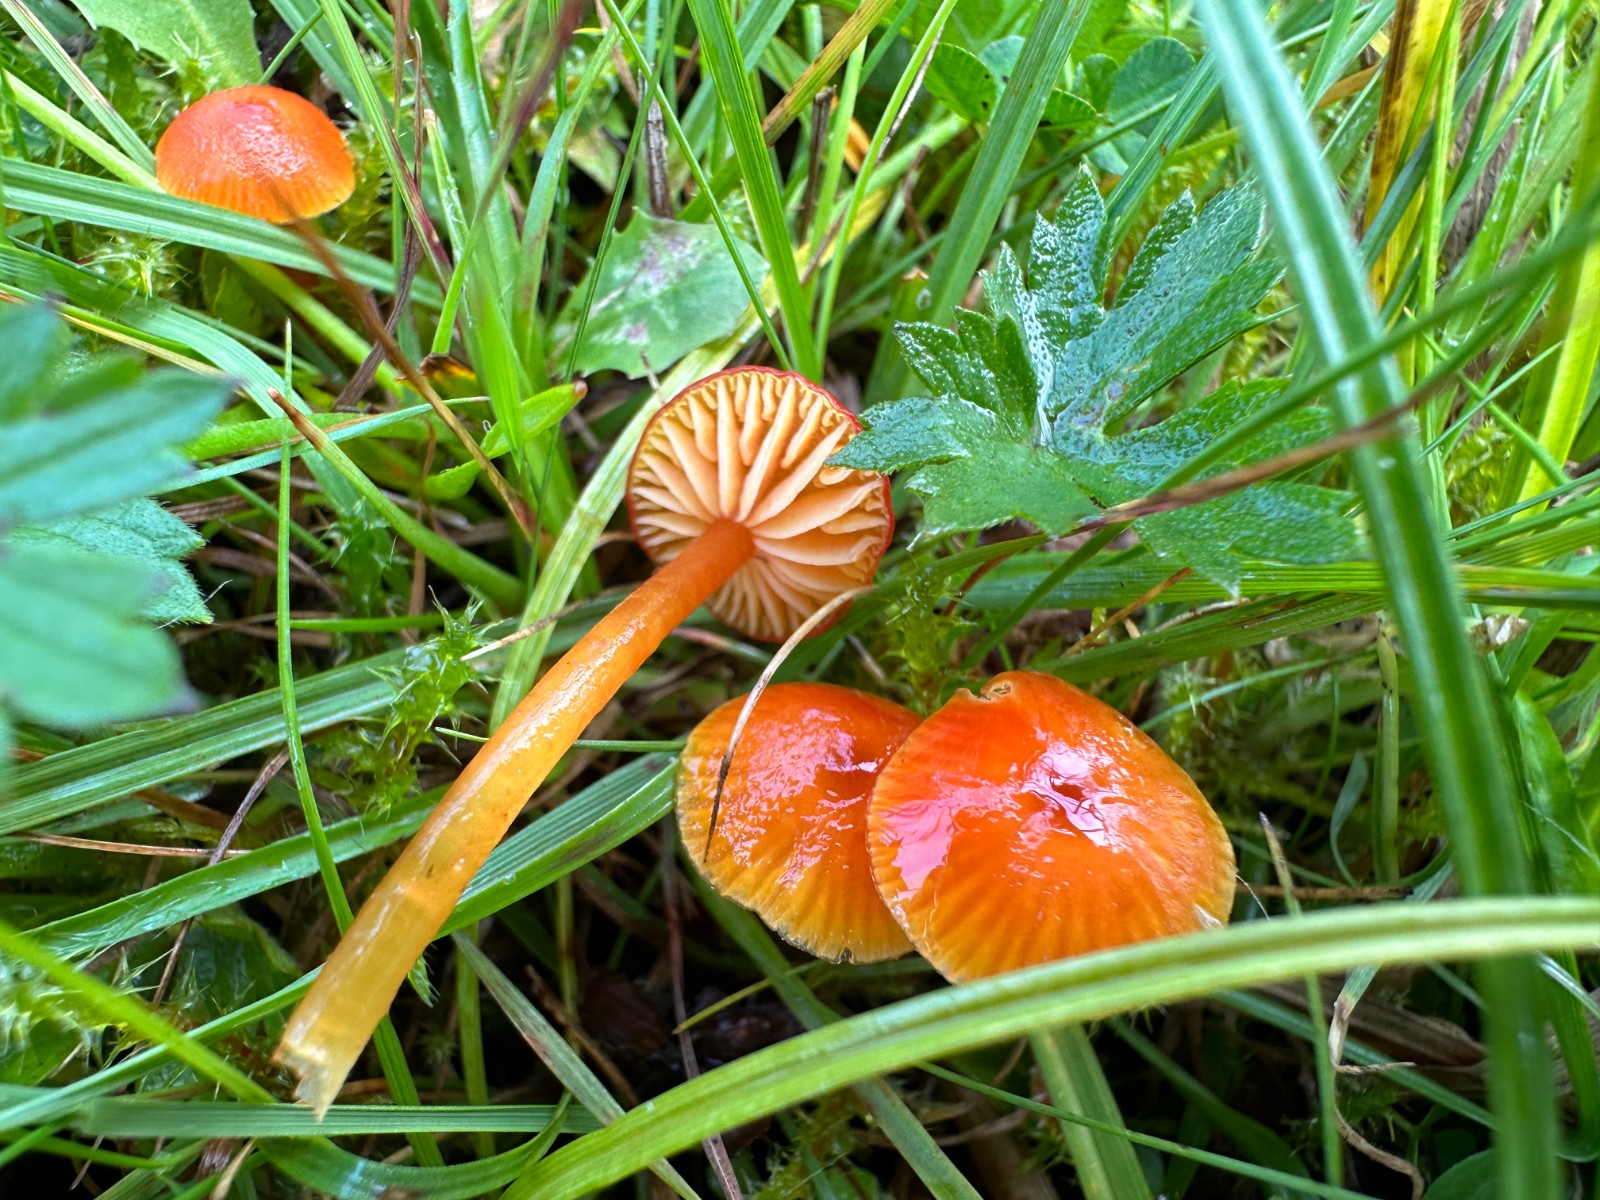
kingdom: Fungi
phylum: Basidiomycota
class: Agaricomycetes
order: Agaricales
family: Hygrophoraceae
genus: Hygrocybe
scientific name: Hygrocybe mucronella
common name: bitter vokshat
